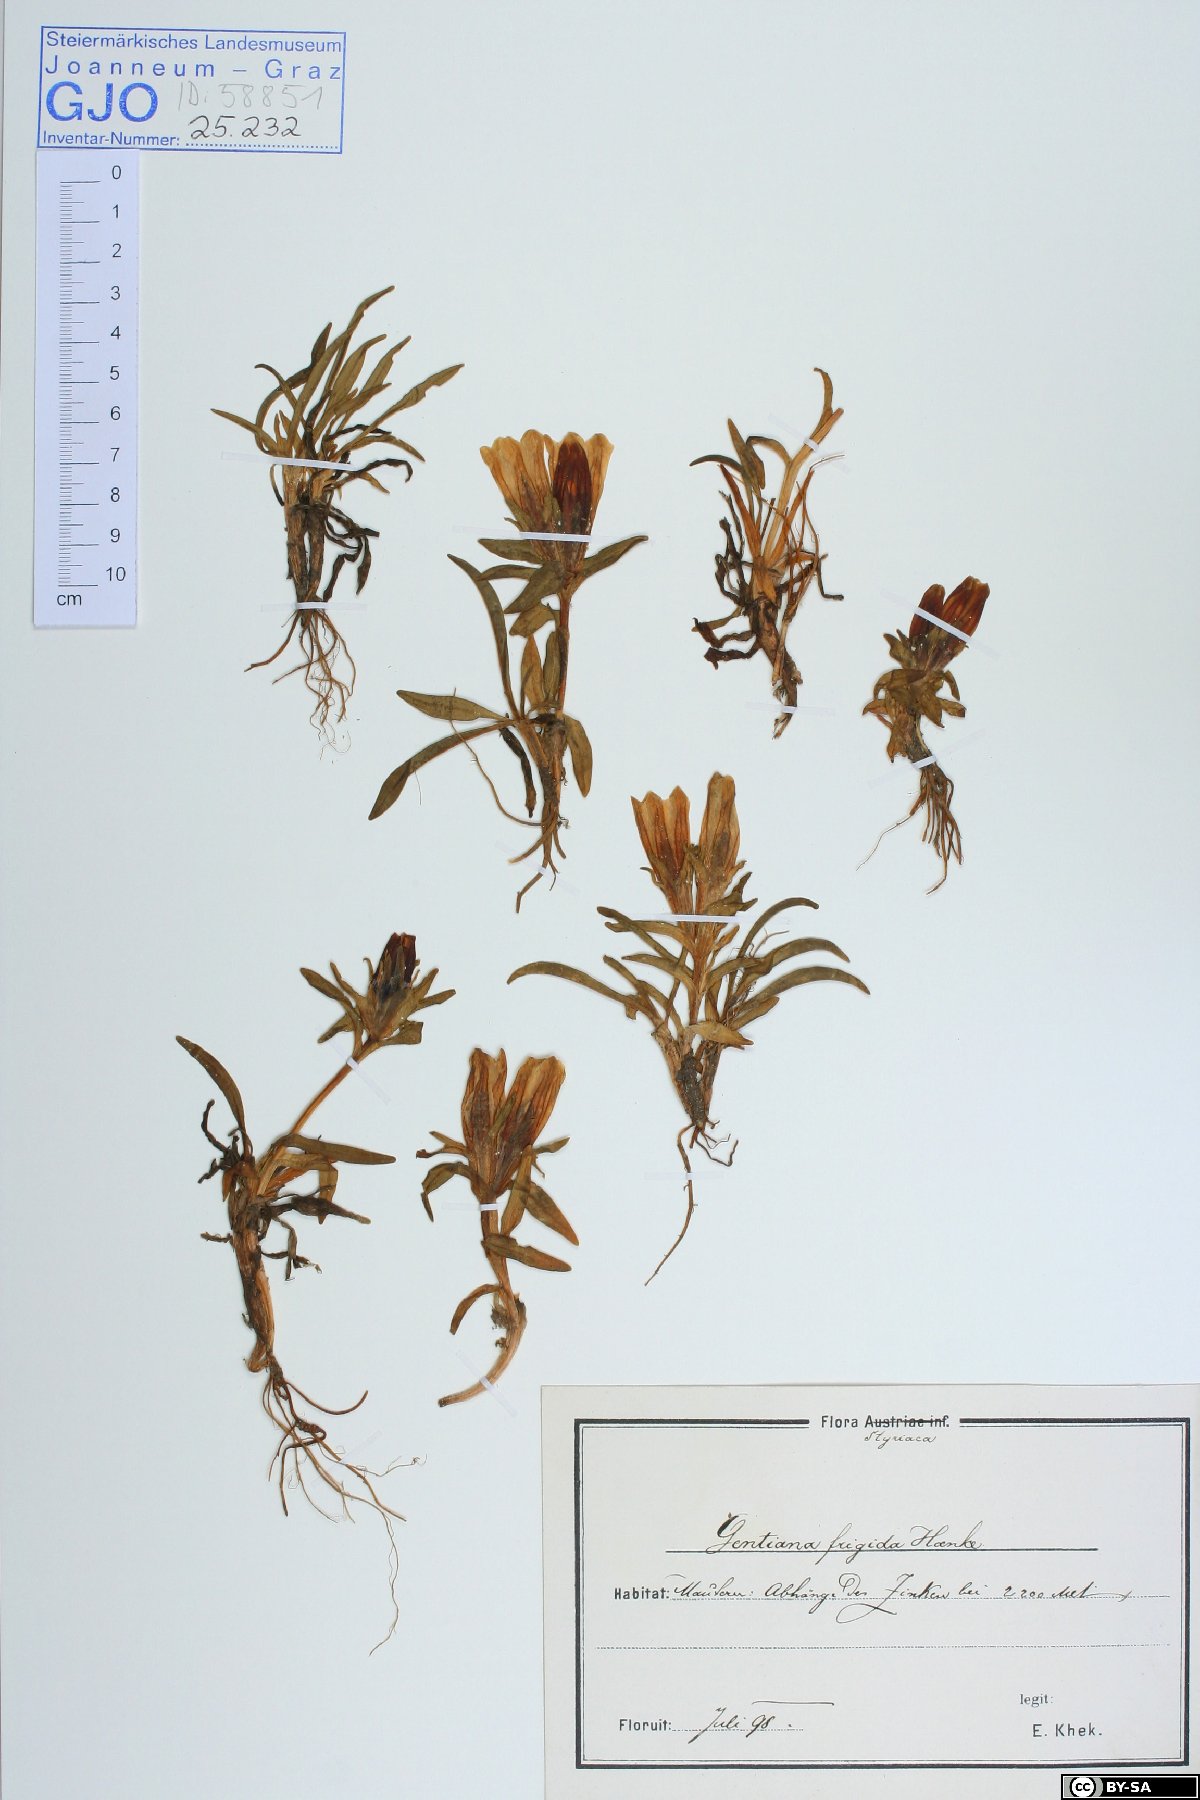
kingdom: Plantae
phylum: Tracheophyta
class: Magnoliopsida
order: Gentianales
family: Gentianaceae
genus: Gentiana
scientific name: Gentiana frigida
